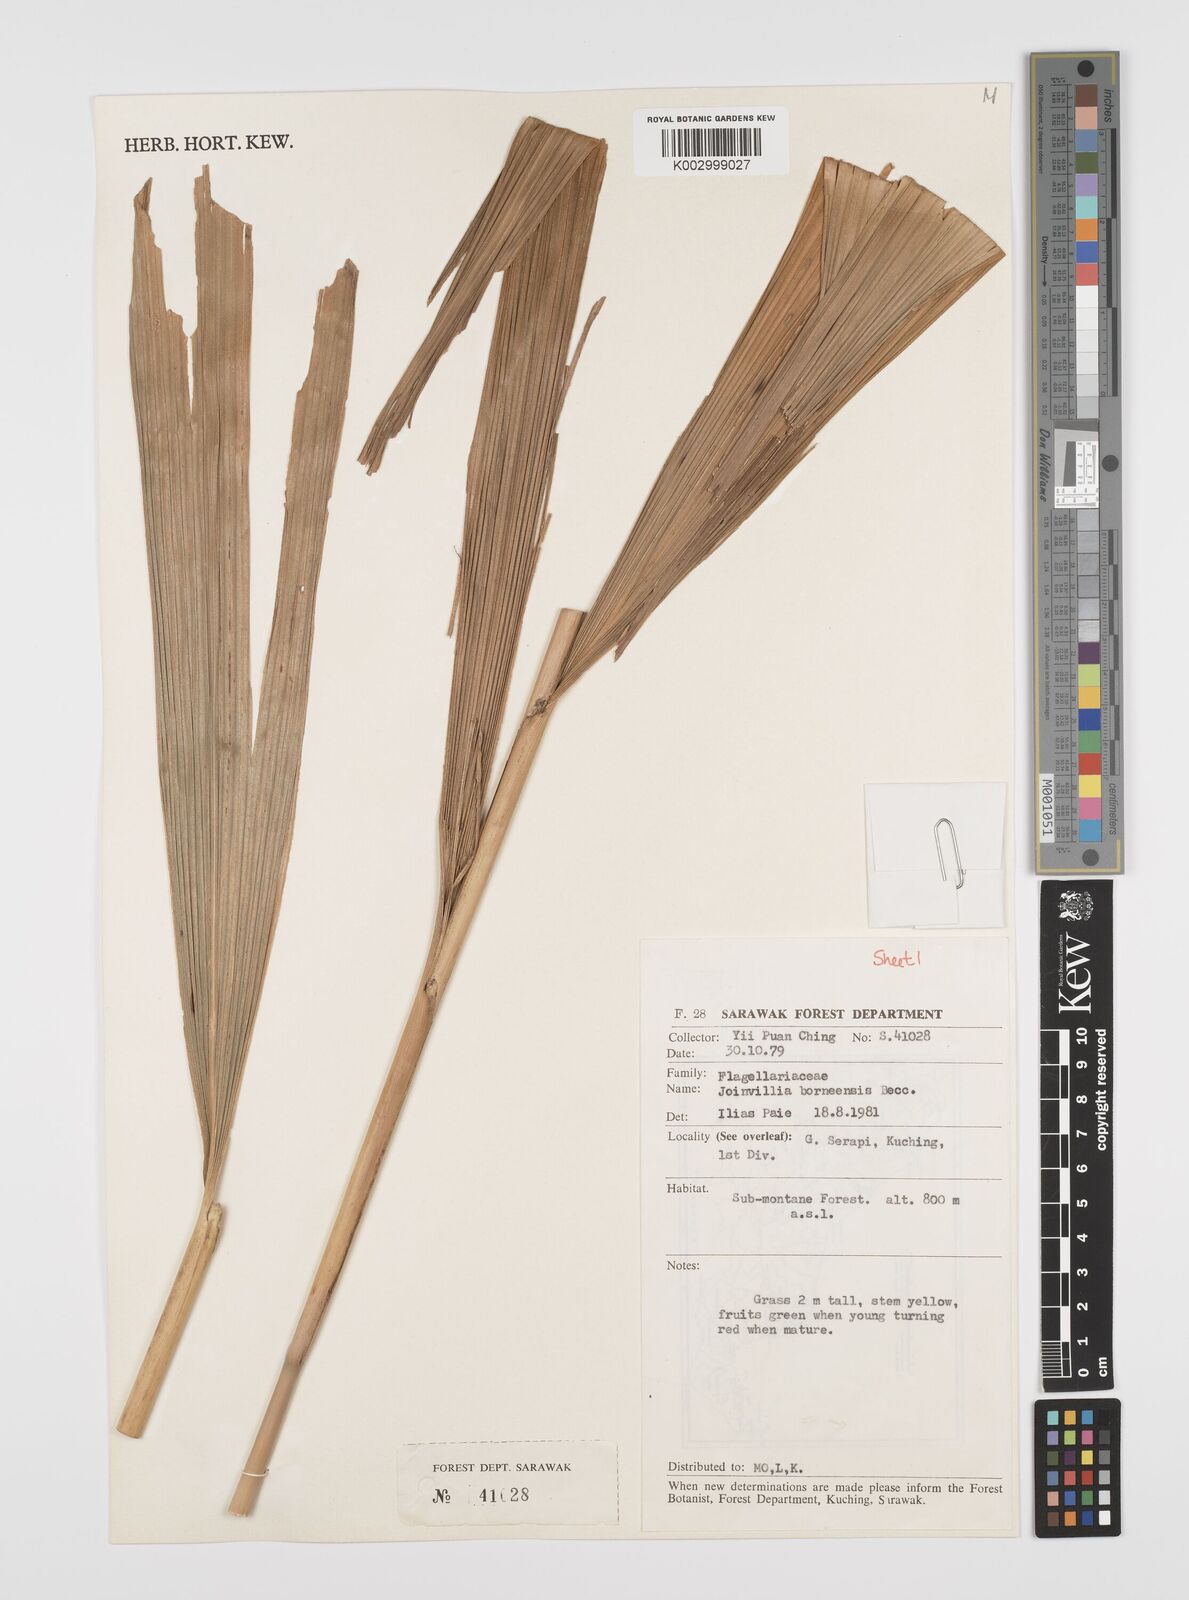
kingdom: Plantae
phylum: Tracheophyta
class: Liliopsida
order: Poales
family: Joinvilleaceae
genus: Joinvillea
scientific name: Joinvillea borneensis
